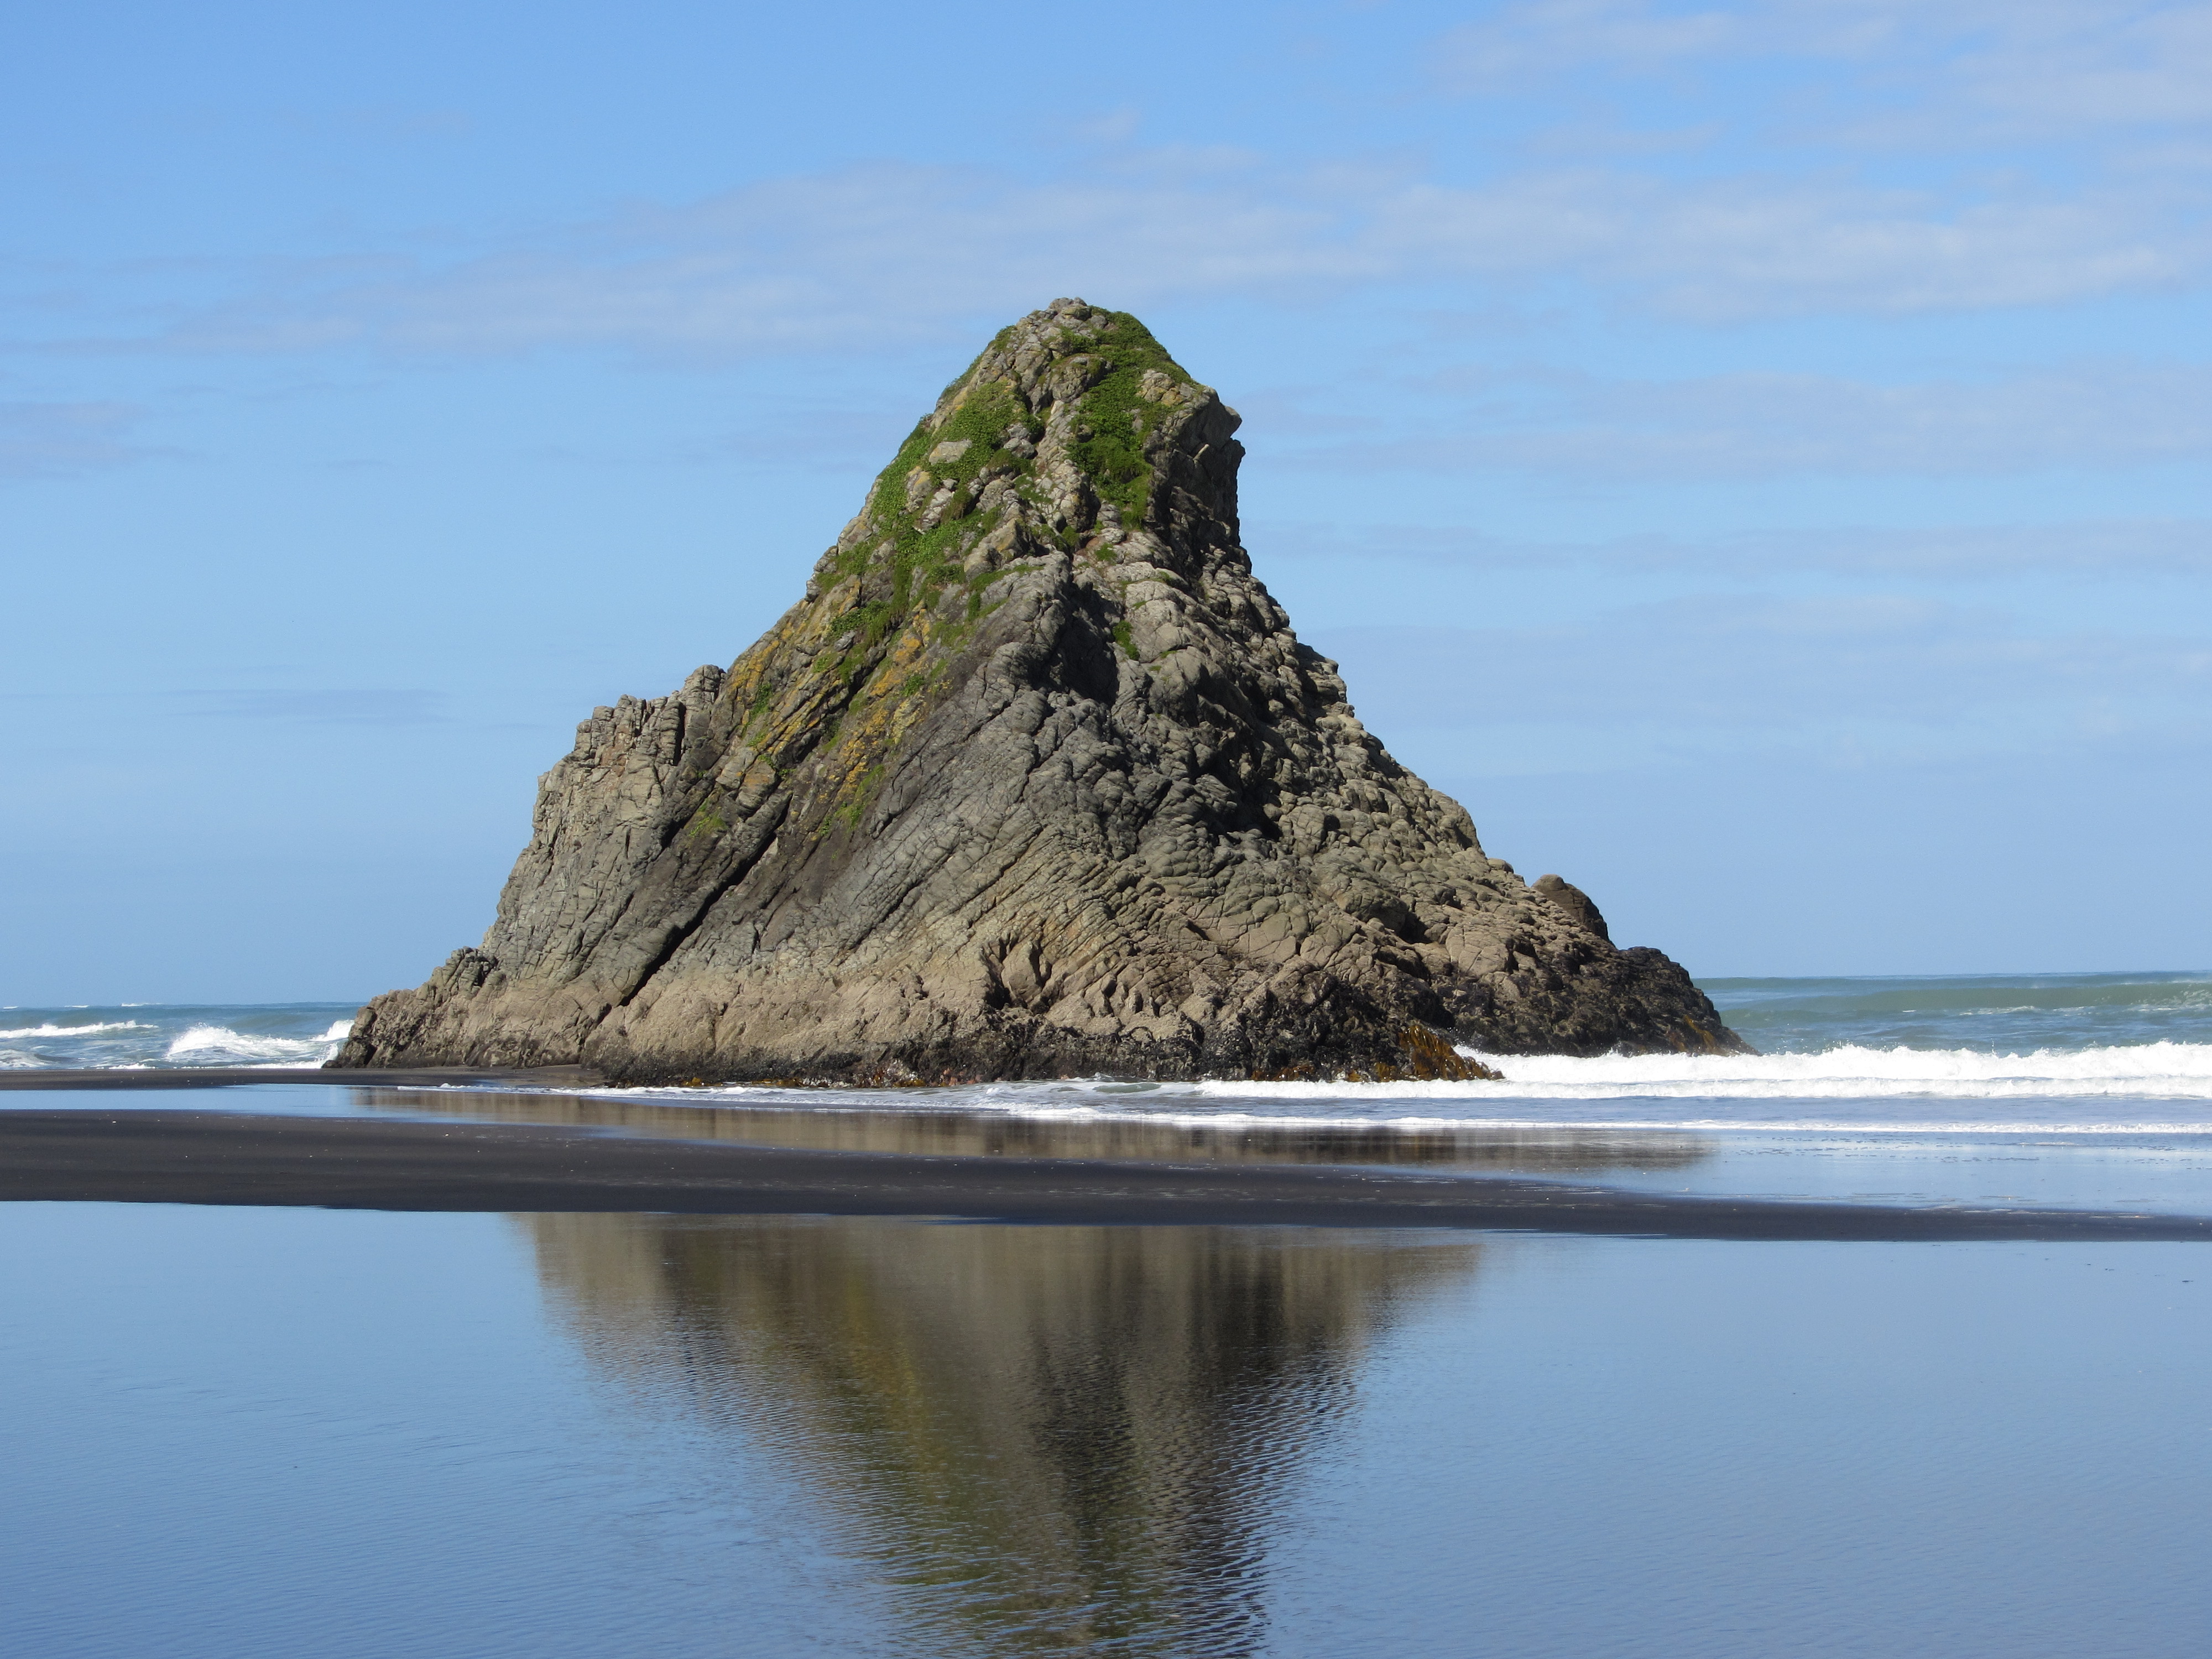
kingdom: Plantae
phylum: Tracheophyta
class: Magnoliopsida
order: Gentianales
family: Rubiaceae
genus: Coprosma
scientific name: Coprosma repens
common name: Tree bedstraw
